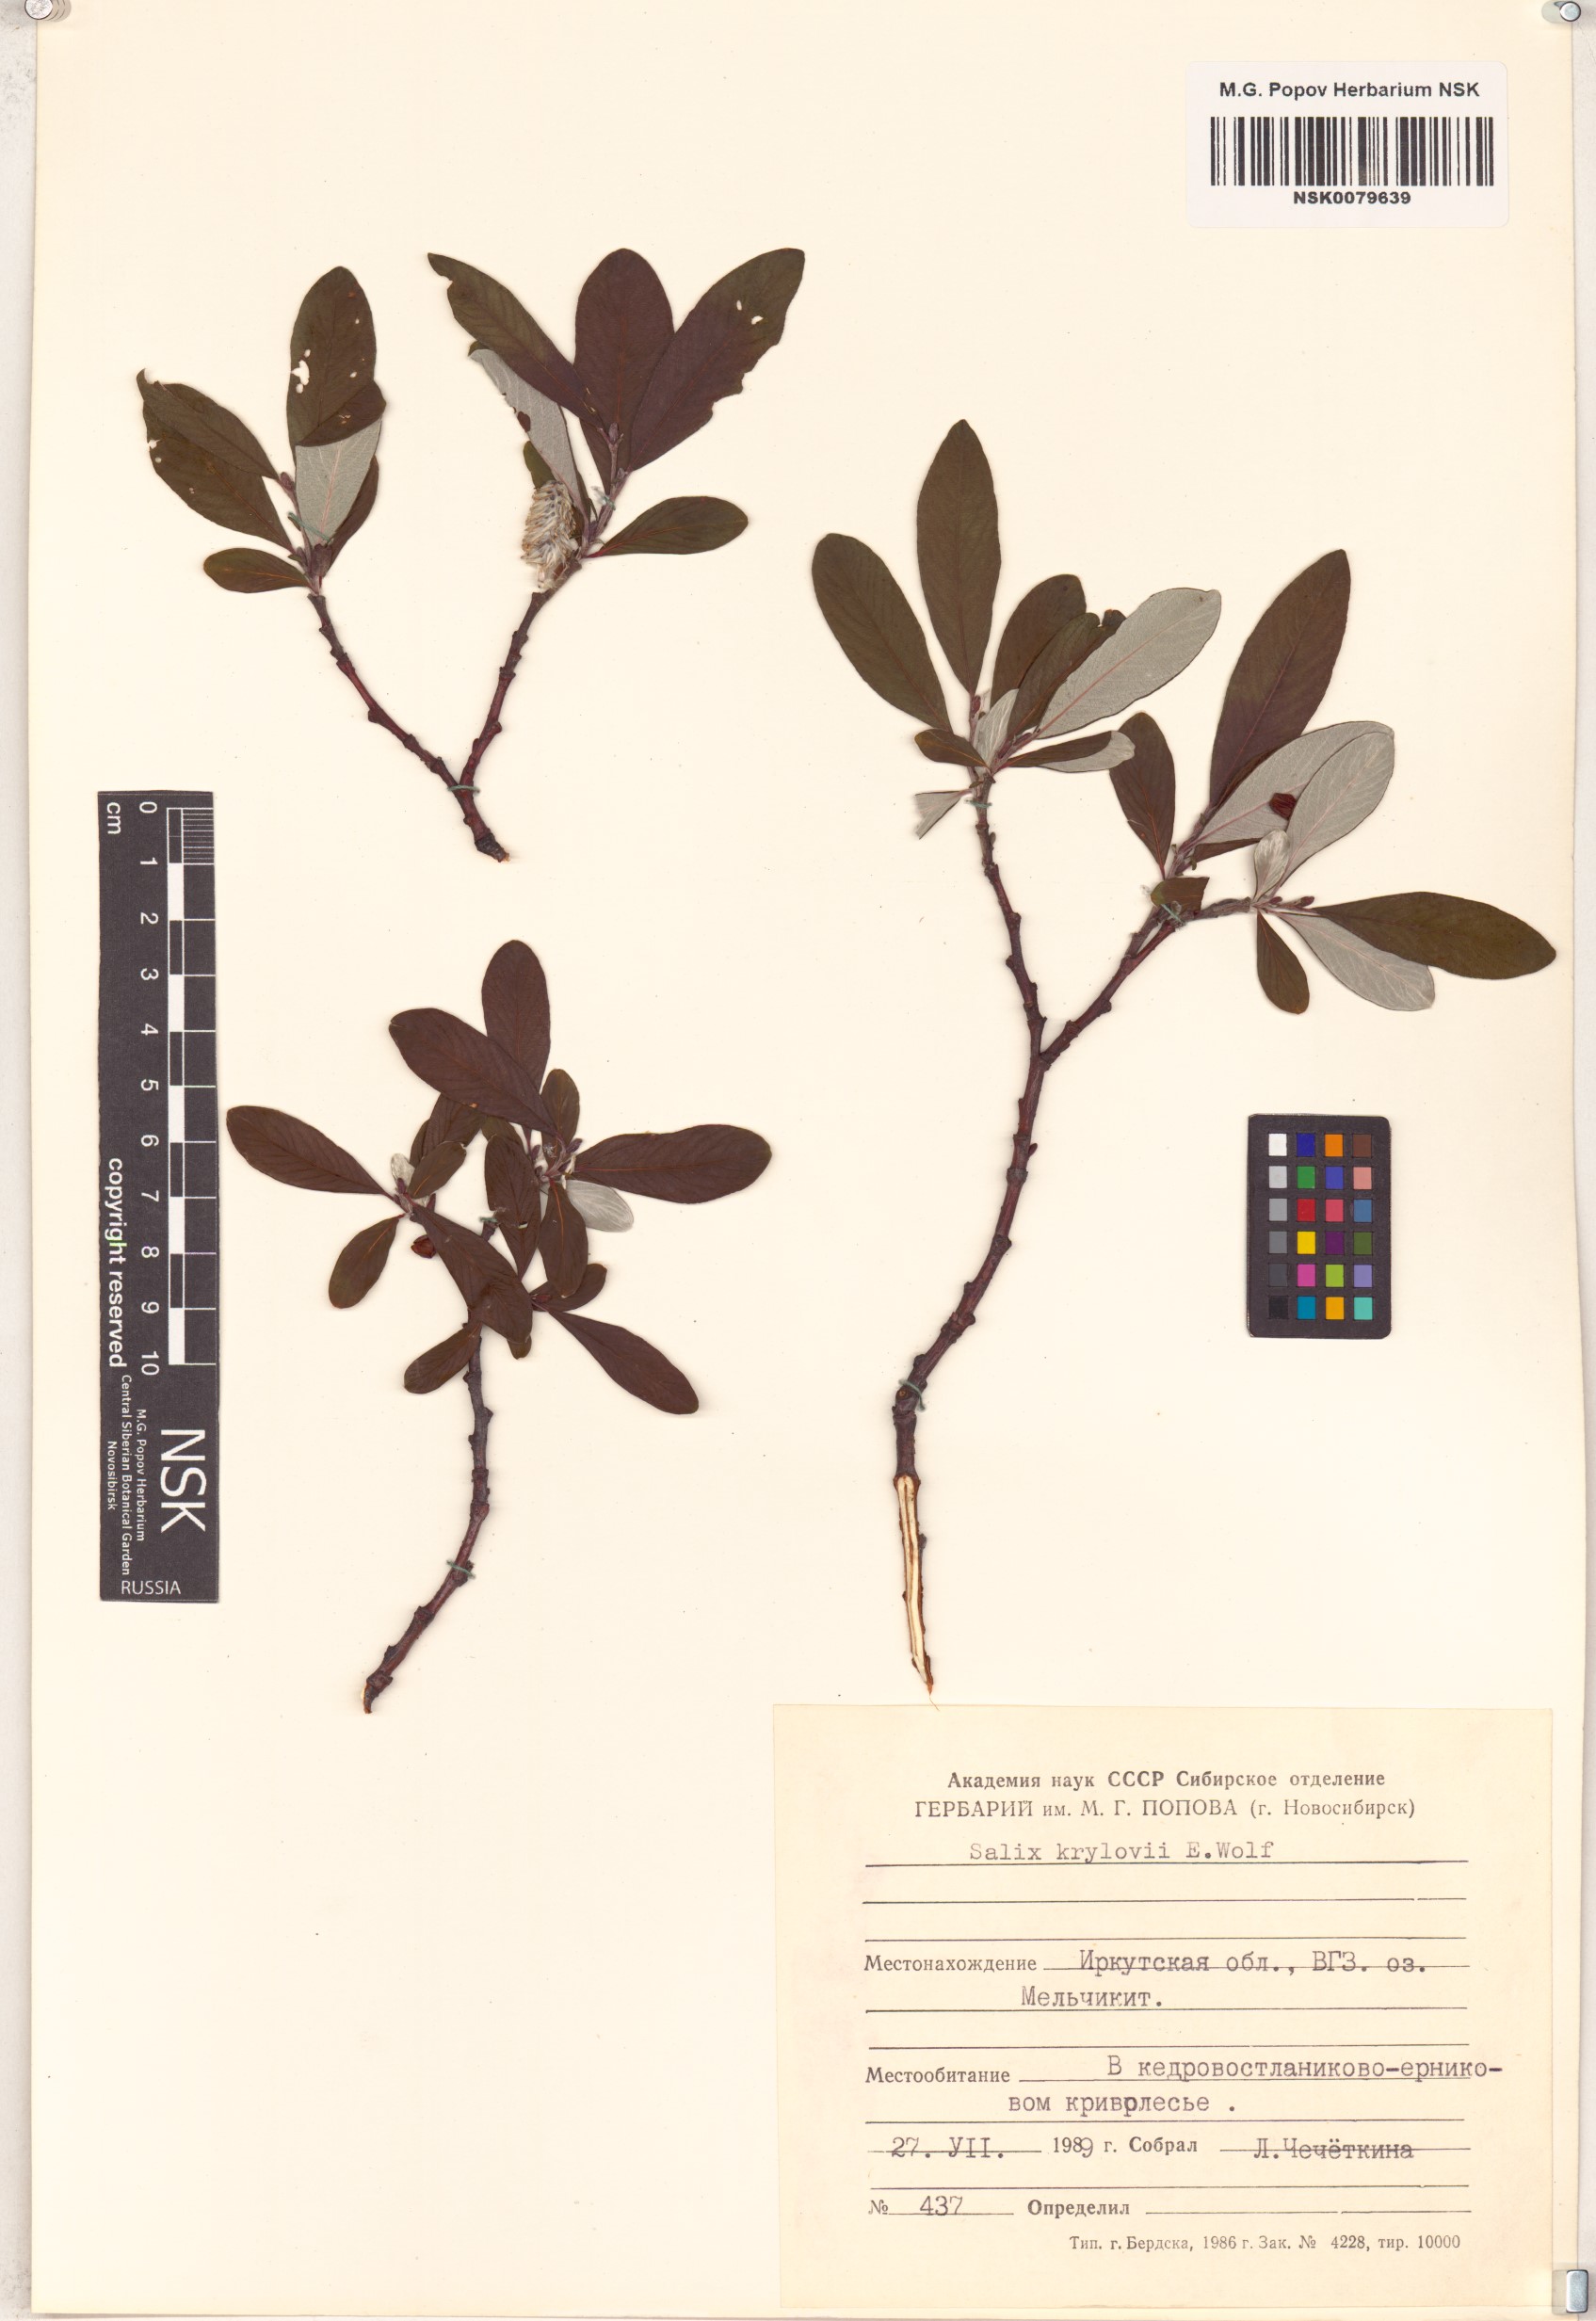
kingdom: Plantae
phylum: Tracheophyta
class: Magnoliopsida
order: Malpighiales
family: Salicaceae
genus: Salix
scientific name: Salix krylovii
